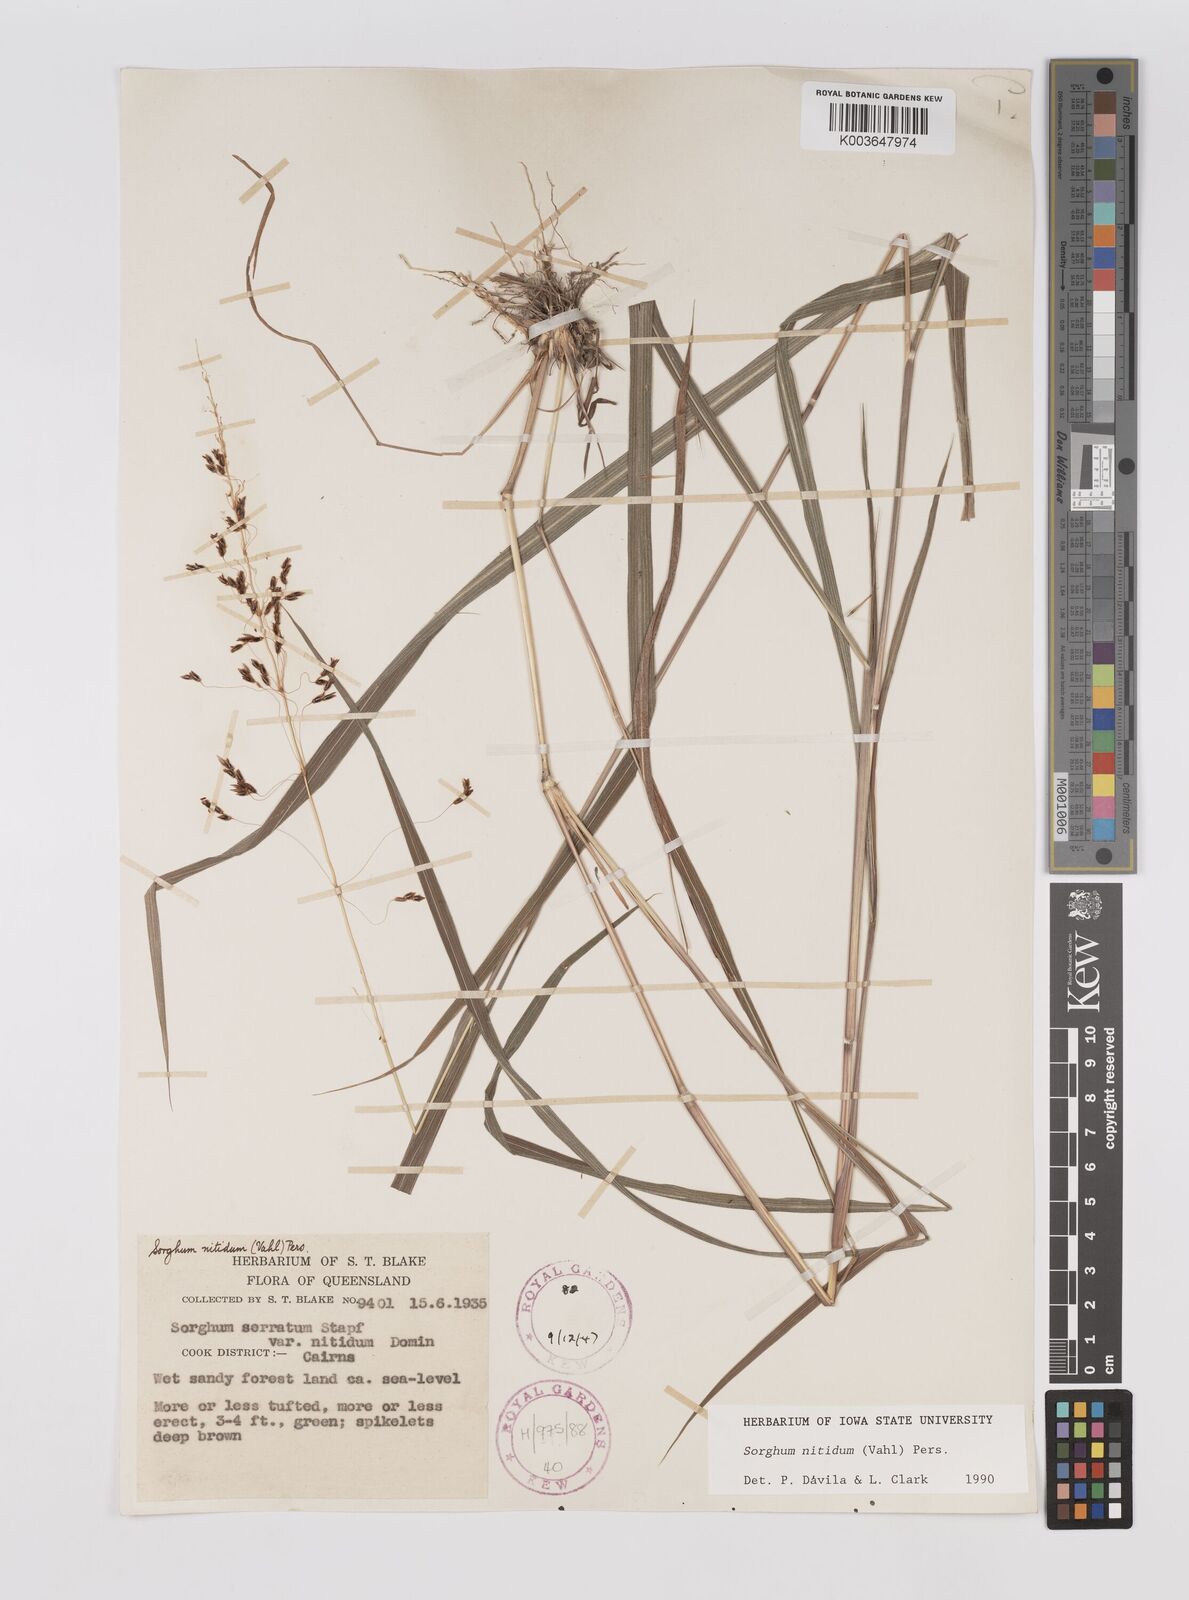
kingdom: Plantae
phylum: Tracheophyta
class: Liliopsida
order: Poales
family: Poaceae
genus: Sorghum
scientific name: Sorghum nitidum
